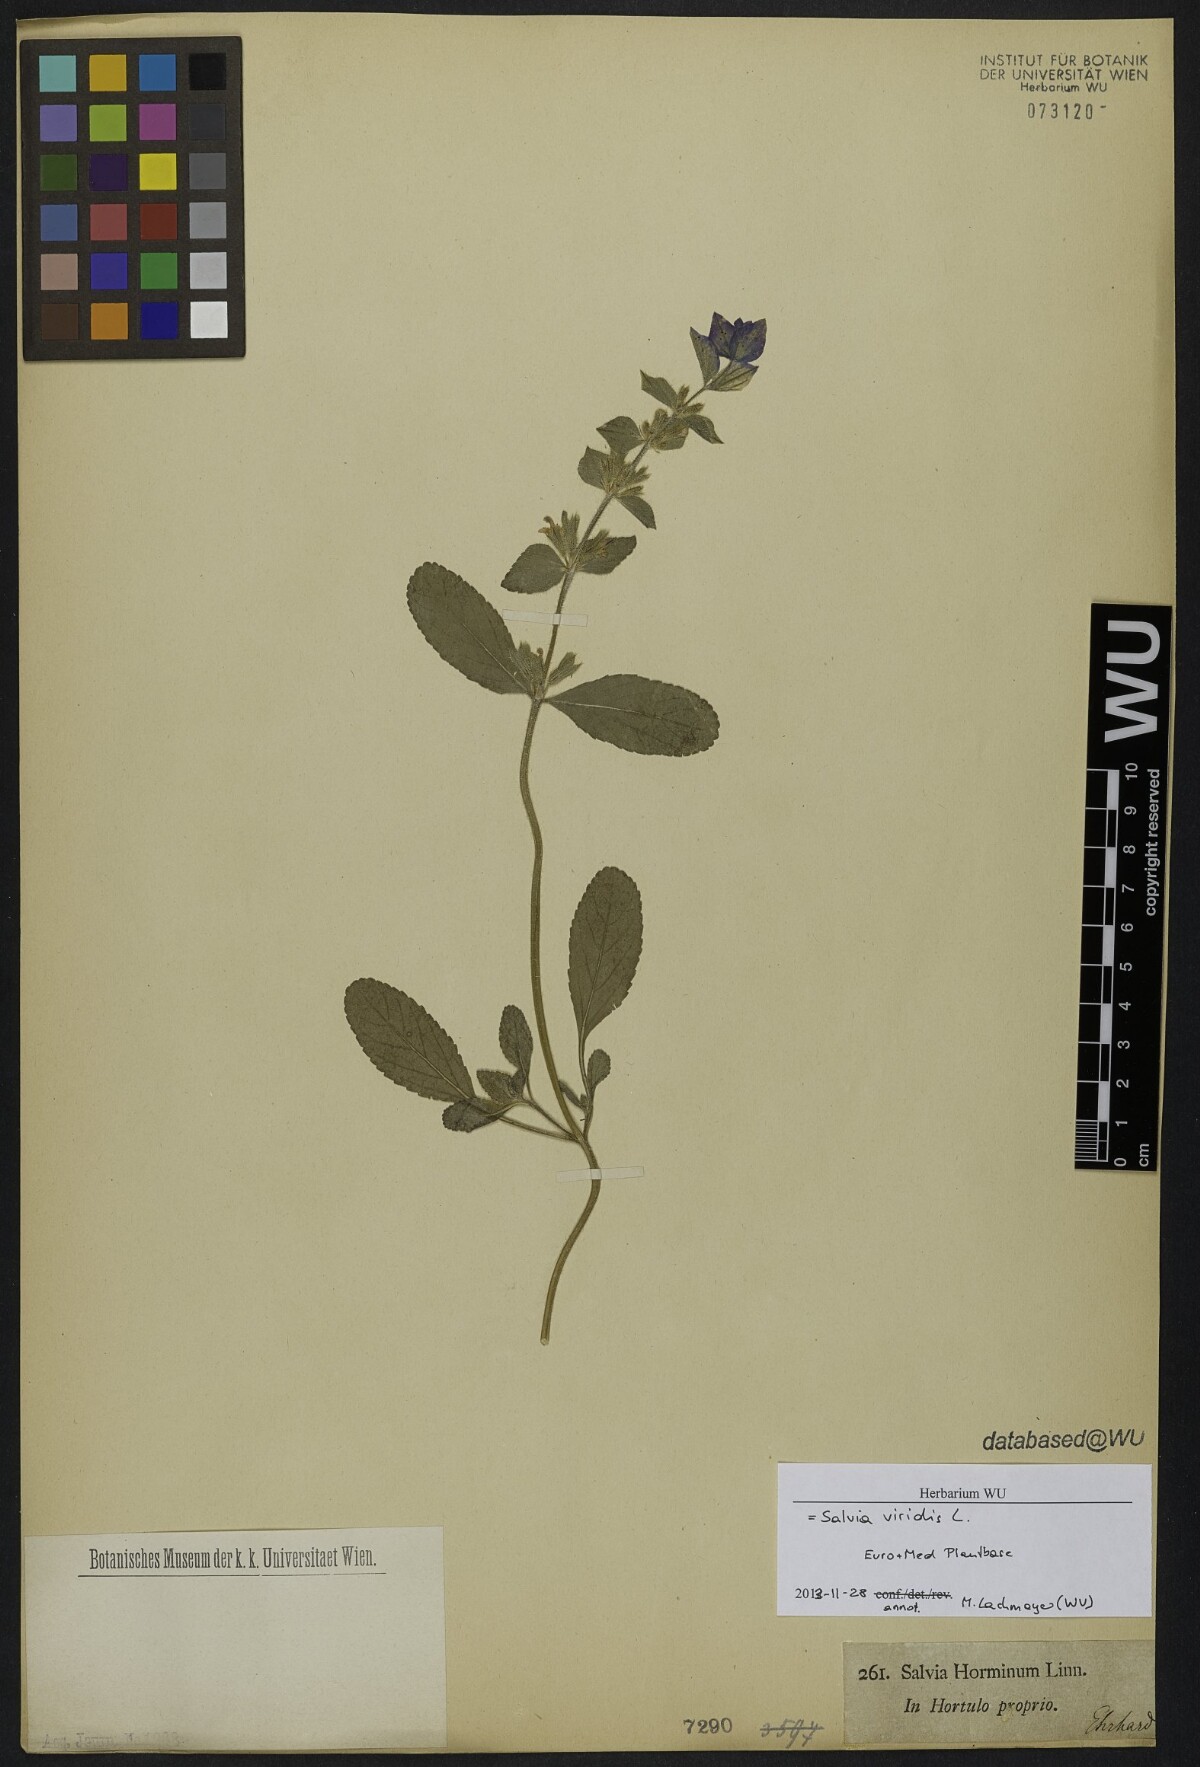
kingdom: Plantae
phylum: Tracheophyta
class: Magnoliopsida
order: Lamiales
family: Lamiaceae
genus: Salvia
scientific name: Salvia viridis
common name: Annual clary
